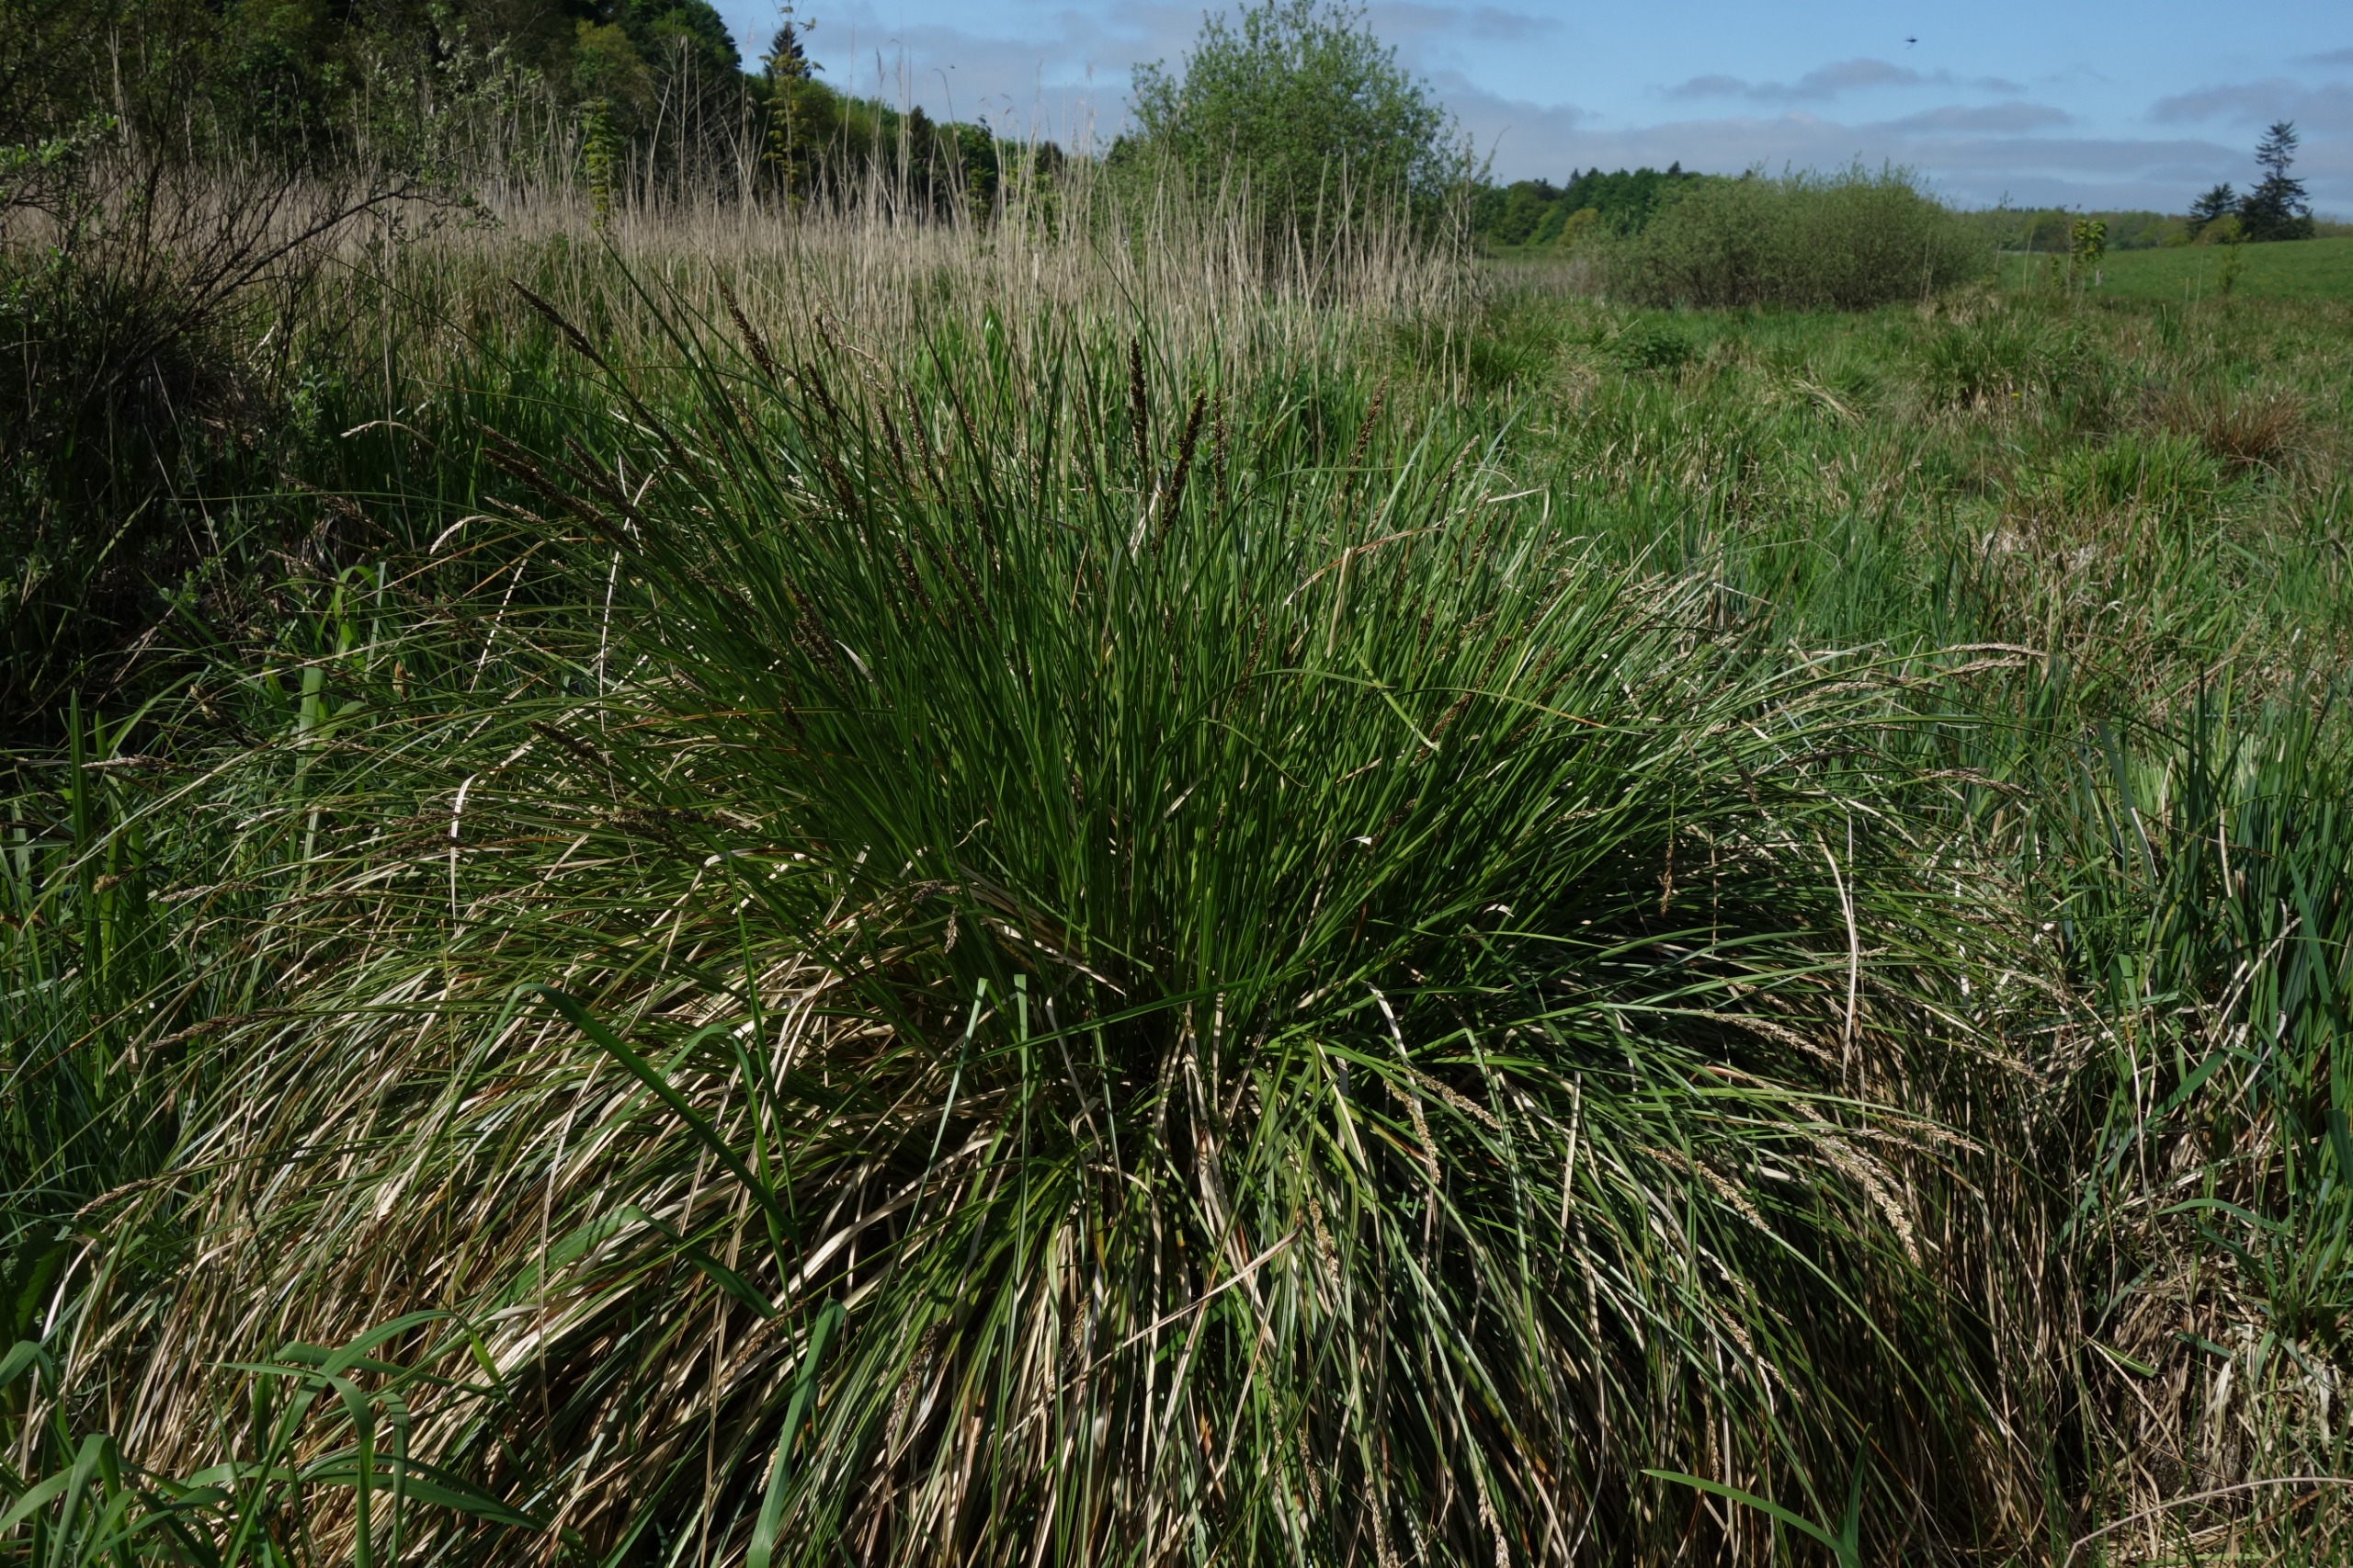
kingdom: Plantae
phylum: Tracheophyta
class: Liliopsida
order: Poales
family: Cyperaceae
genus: Carex
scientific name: Carex paniculata
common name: Top-star
